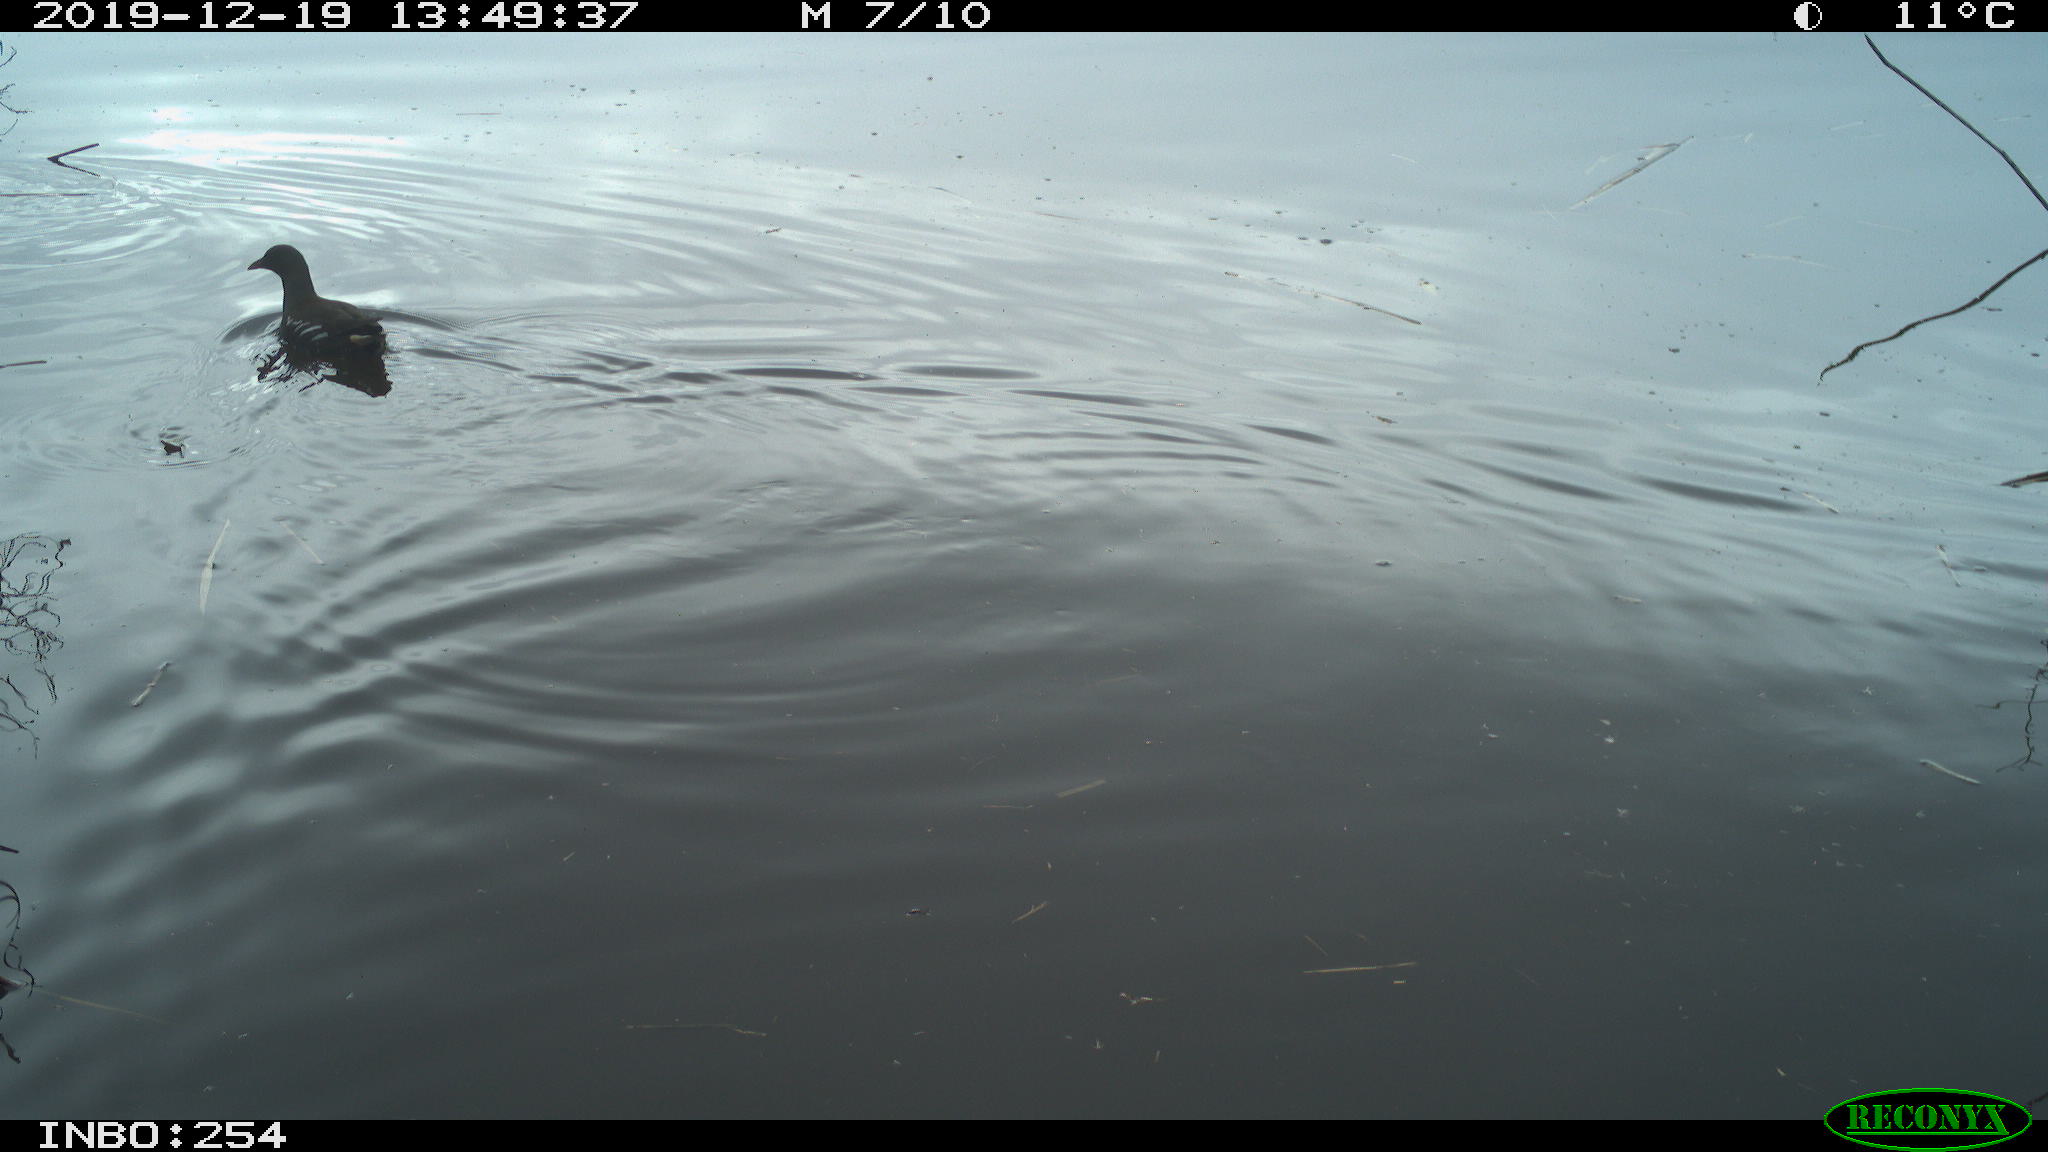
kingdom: Animalia
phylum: Chordata
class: Aves
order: Gruiformes
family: Rallidae
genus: Gallinula
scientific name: Gallinula chloropus
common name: Common moorhen
